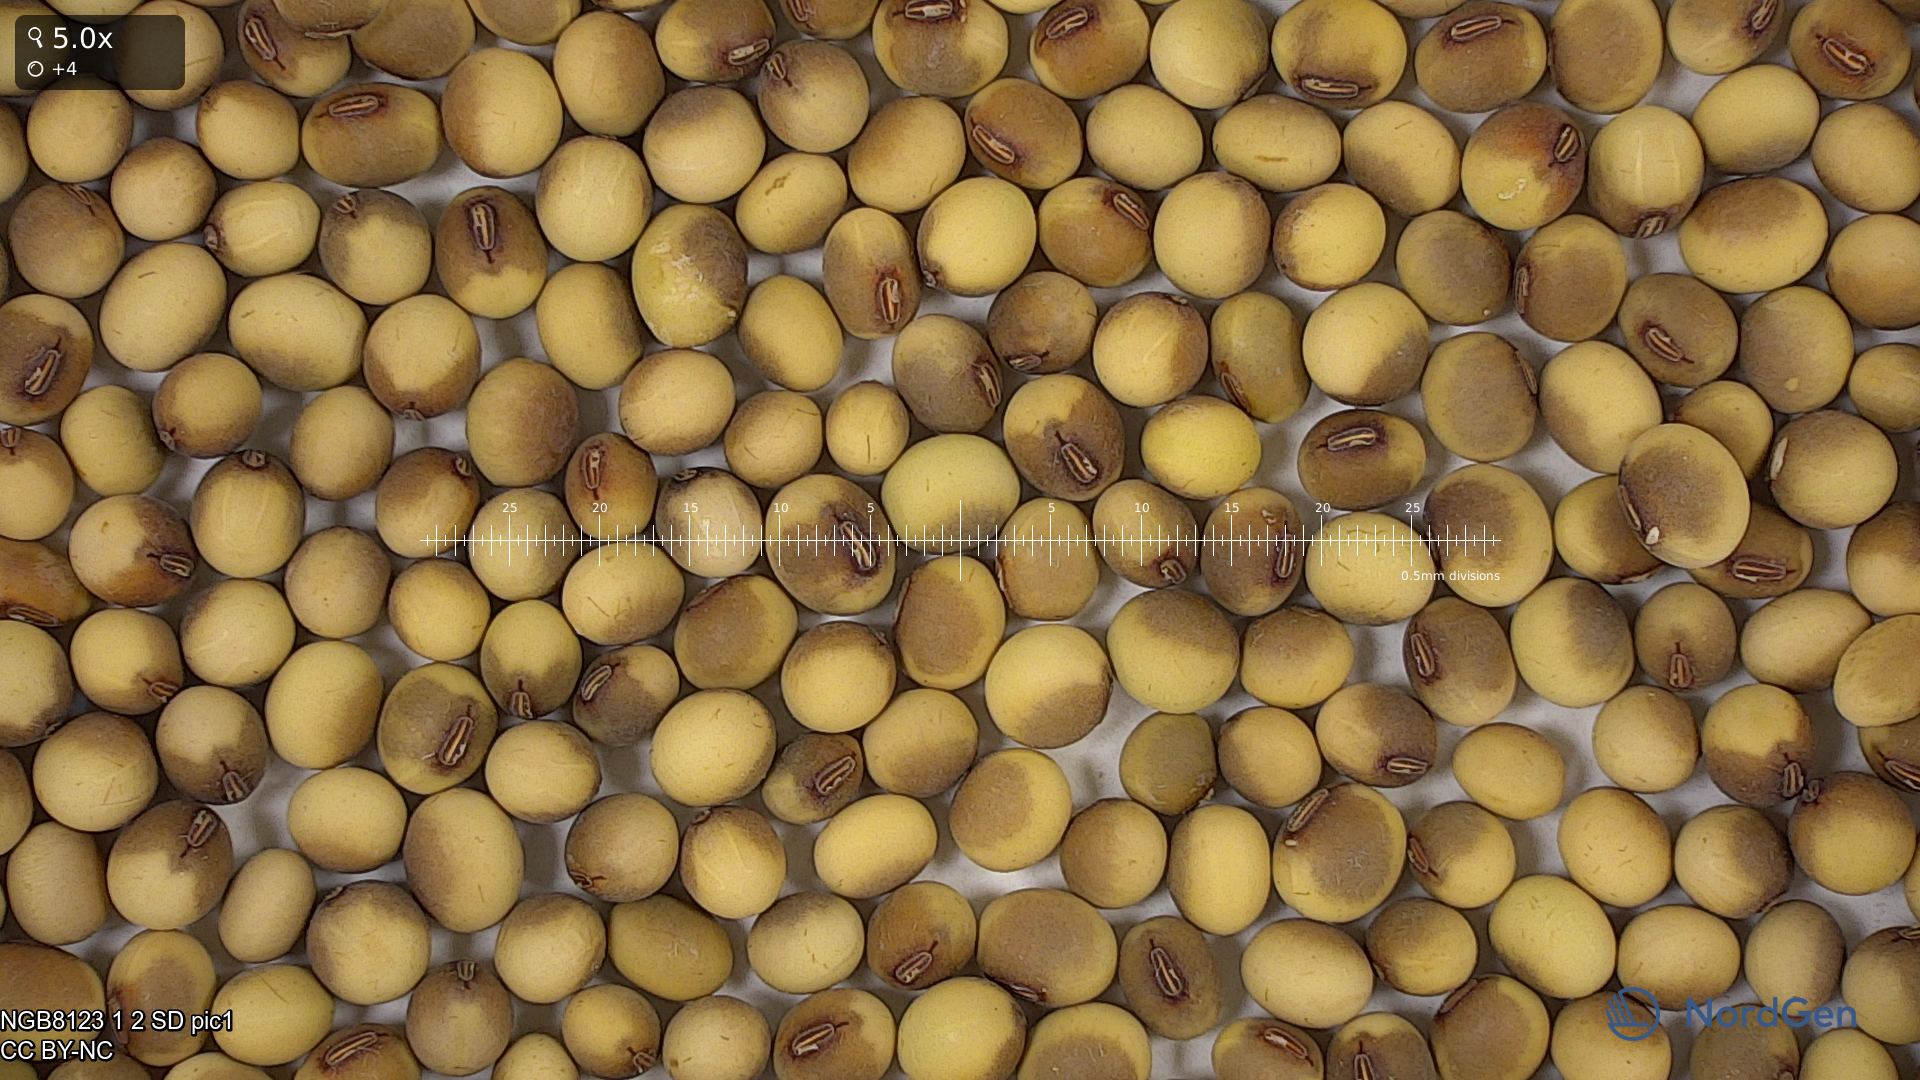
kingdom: Plantae
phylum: Tracheophyta
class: Magnoliopsida
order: Fabales
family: Fabaceae
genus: Glycine
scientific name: Glycine max
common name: Soya-bean
